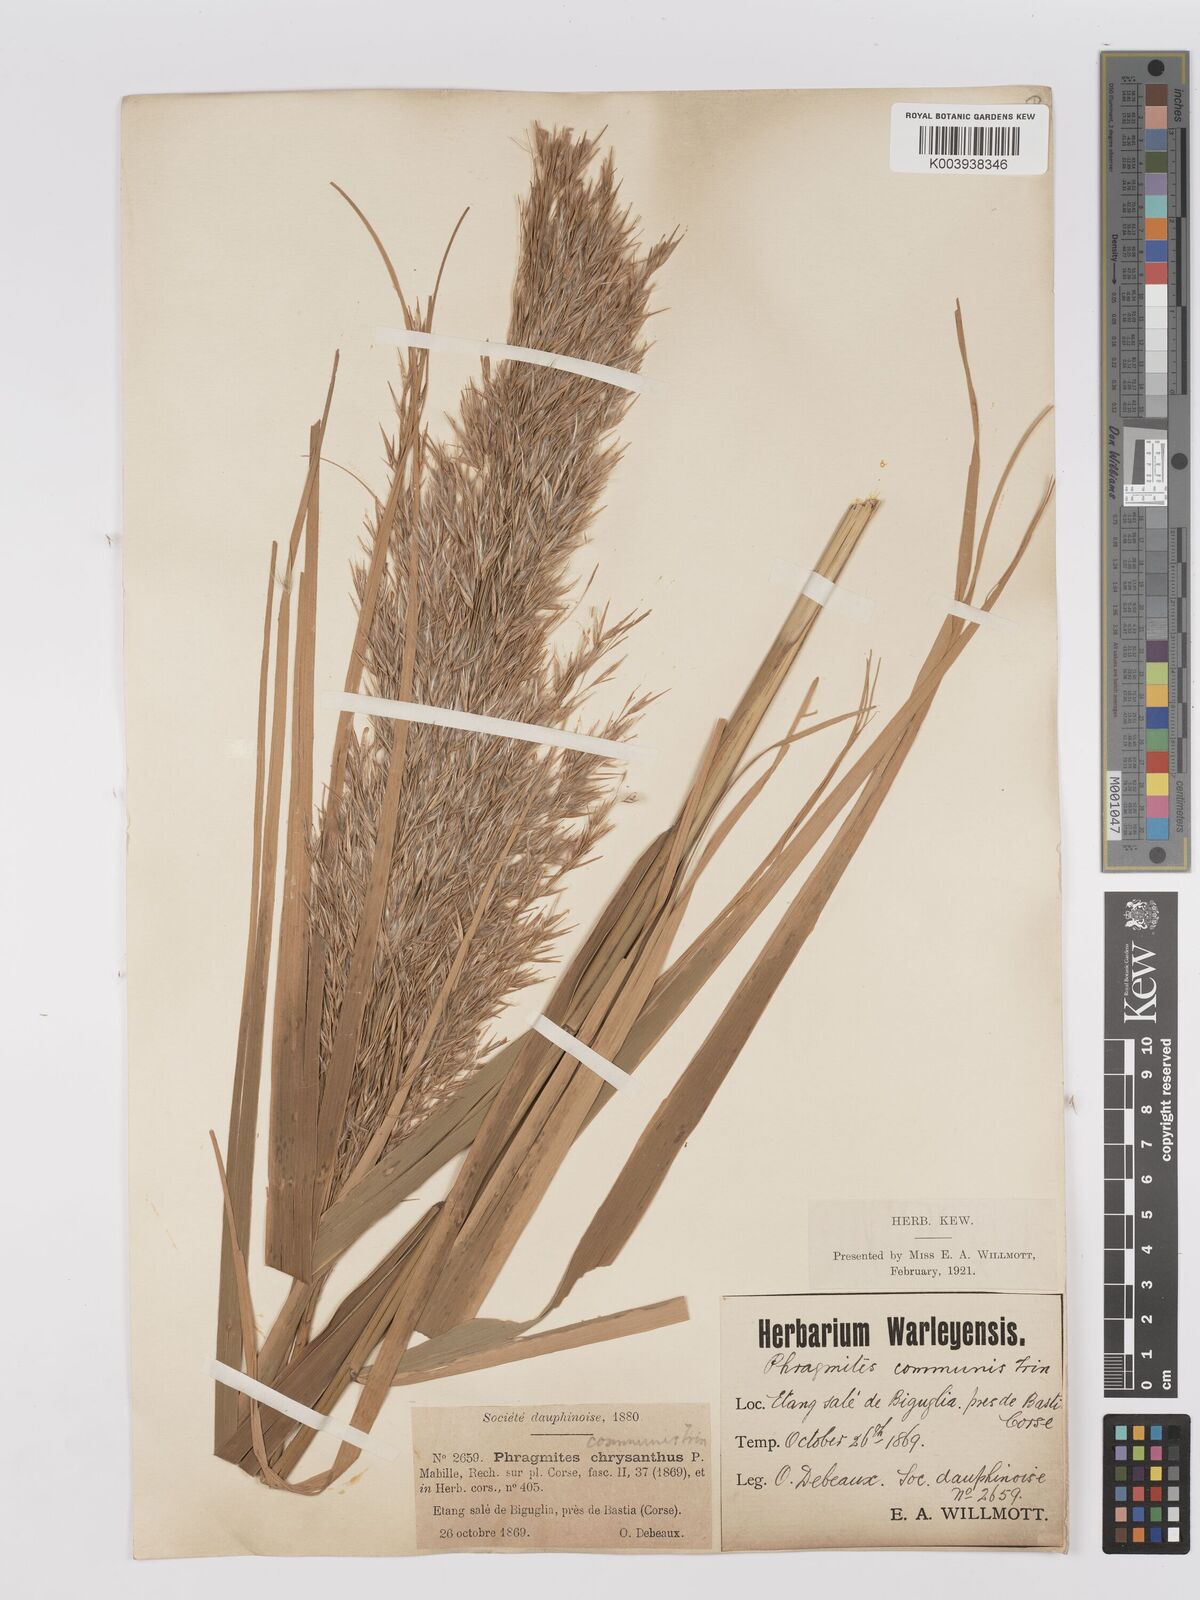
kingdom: Plantae
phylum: Tracheophyta
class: Liliopsida
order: Poales
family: Poaceae
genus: Phragmites
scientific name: Phragmites australis
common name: Common reed
